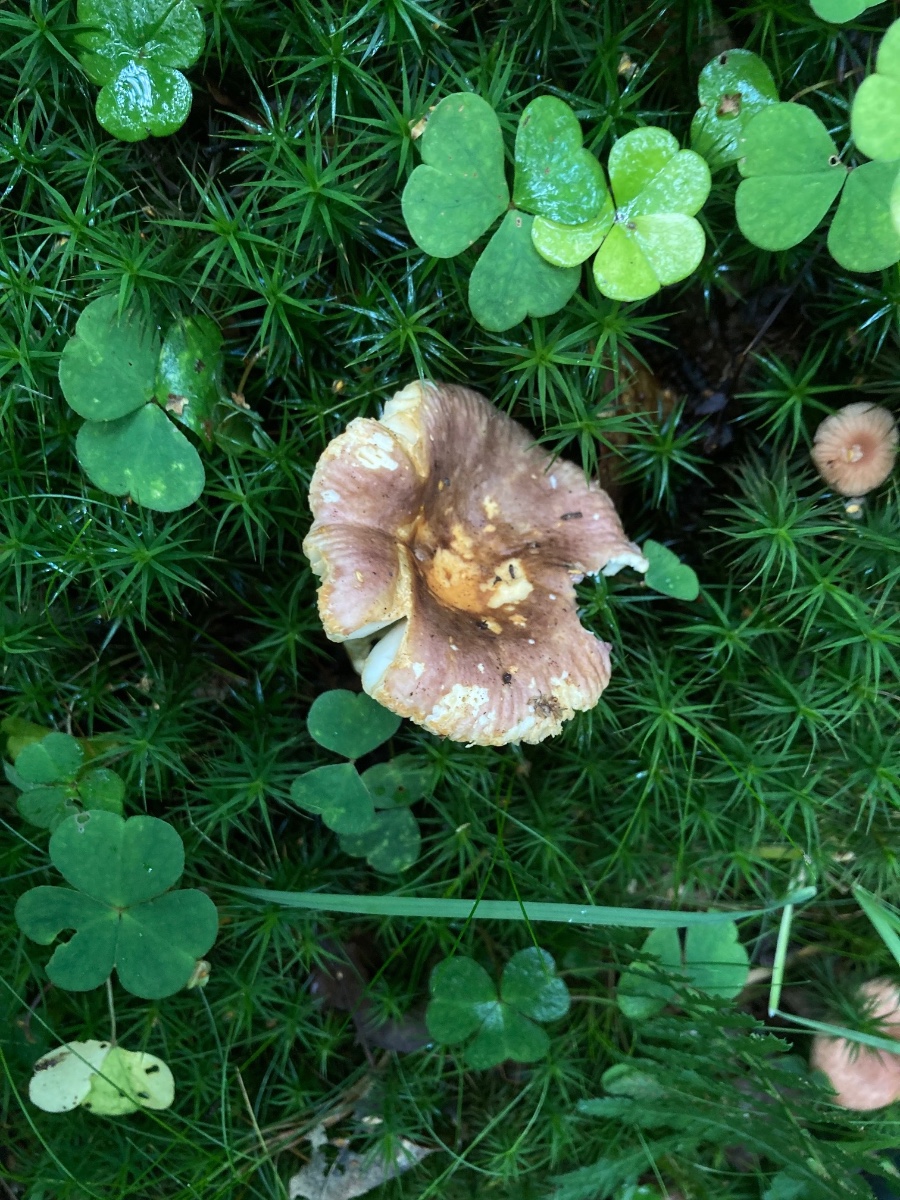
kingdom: Fungi
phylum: Basidiomycota
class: Agaricomycetes
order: Russulales
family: Russulaceae
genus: Russula
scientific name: Russula puellaris
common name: gulstokket skørhat
